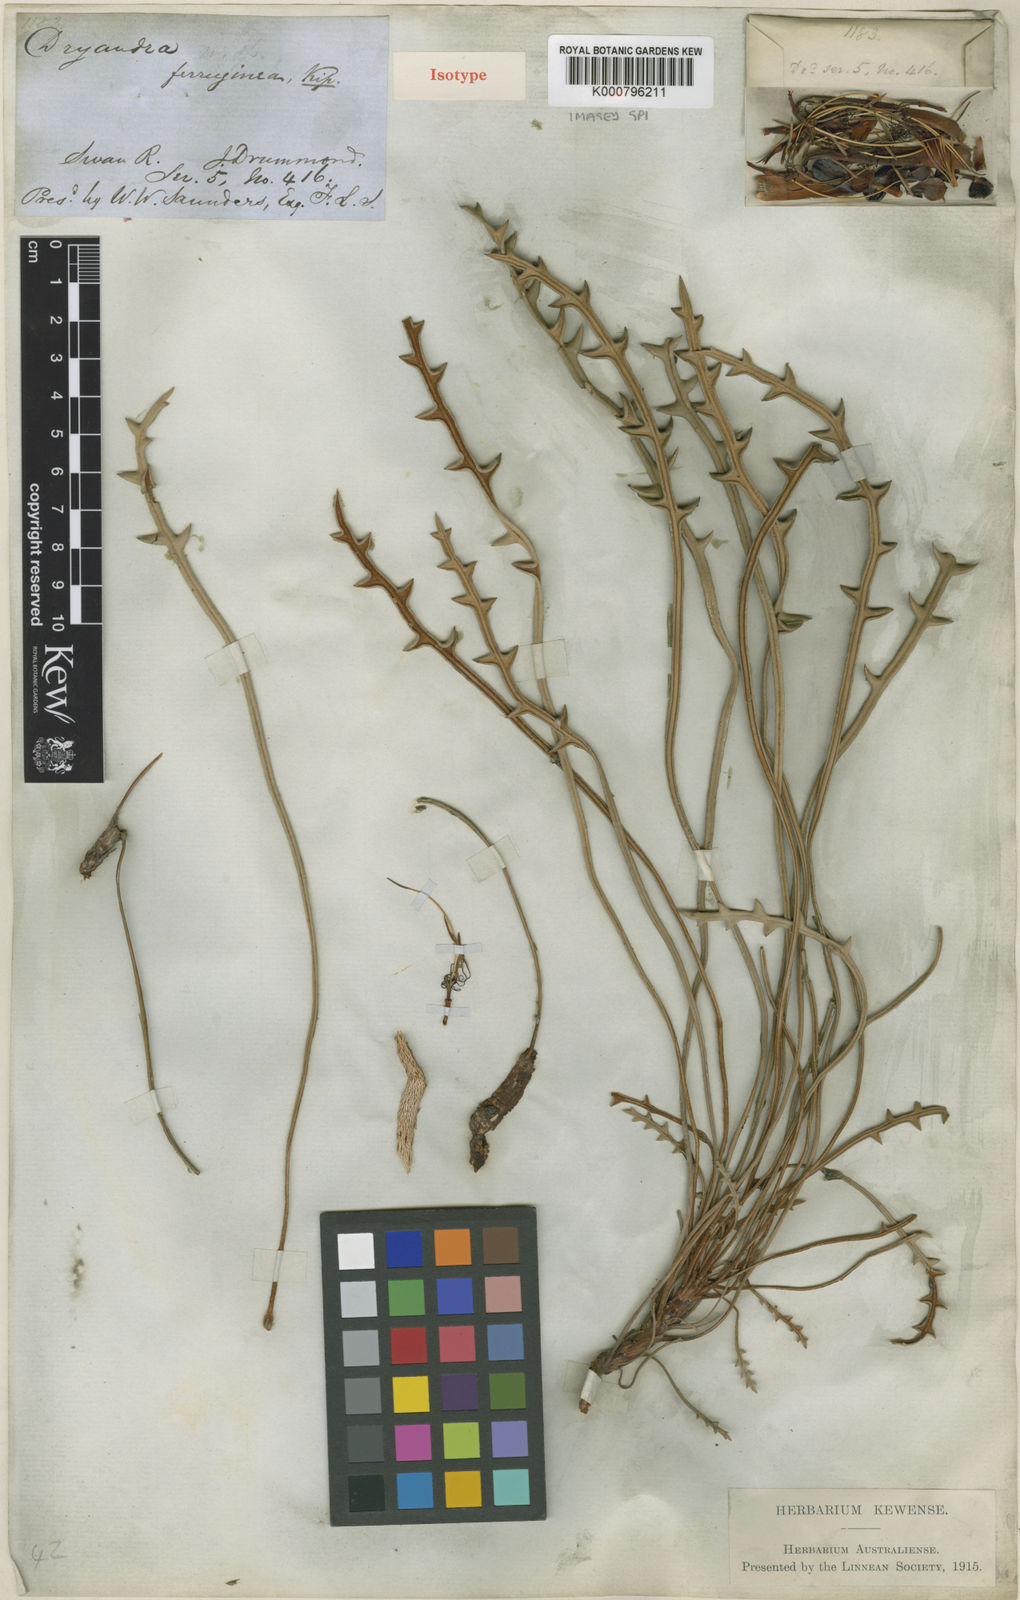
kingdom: Plantae
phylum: Tracheophyta
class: Magnoliopsida
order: Proteales
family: Proteaceae
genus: Banksia
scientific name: Banksia rufa
